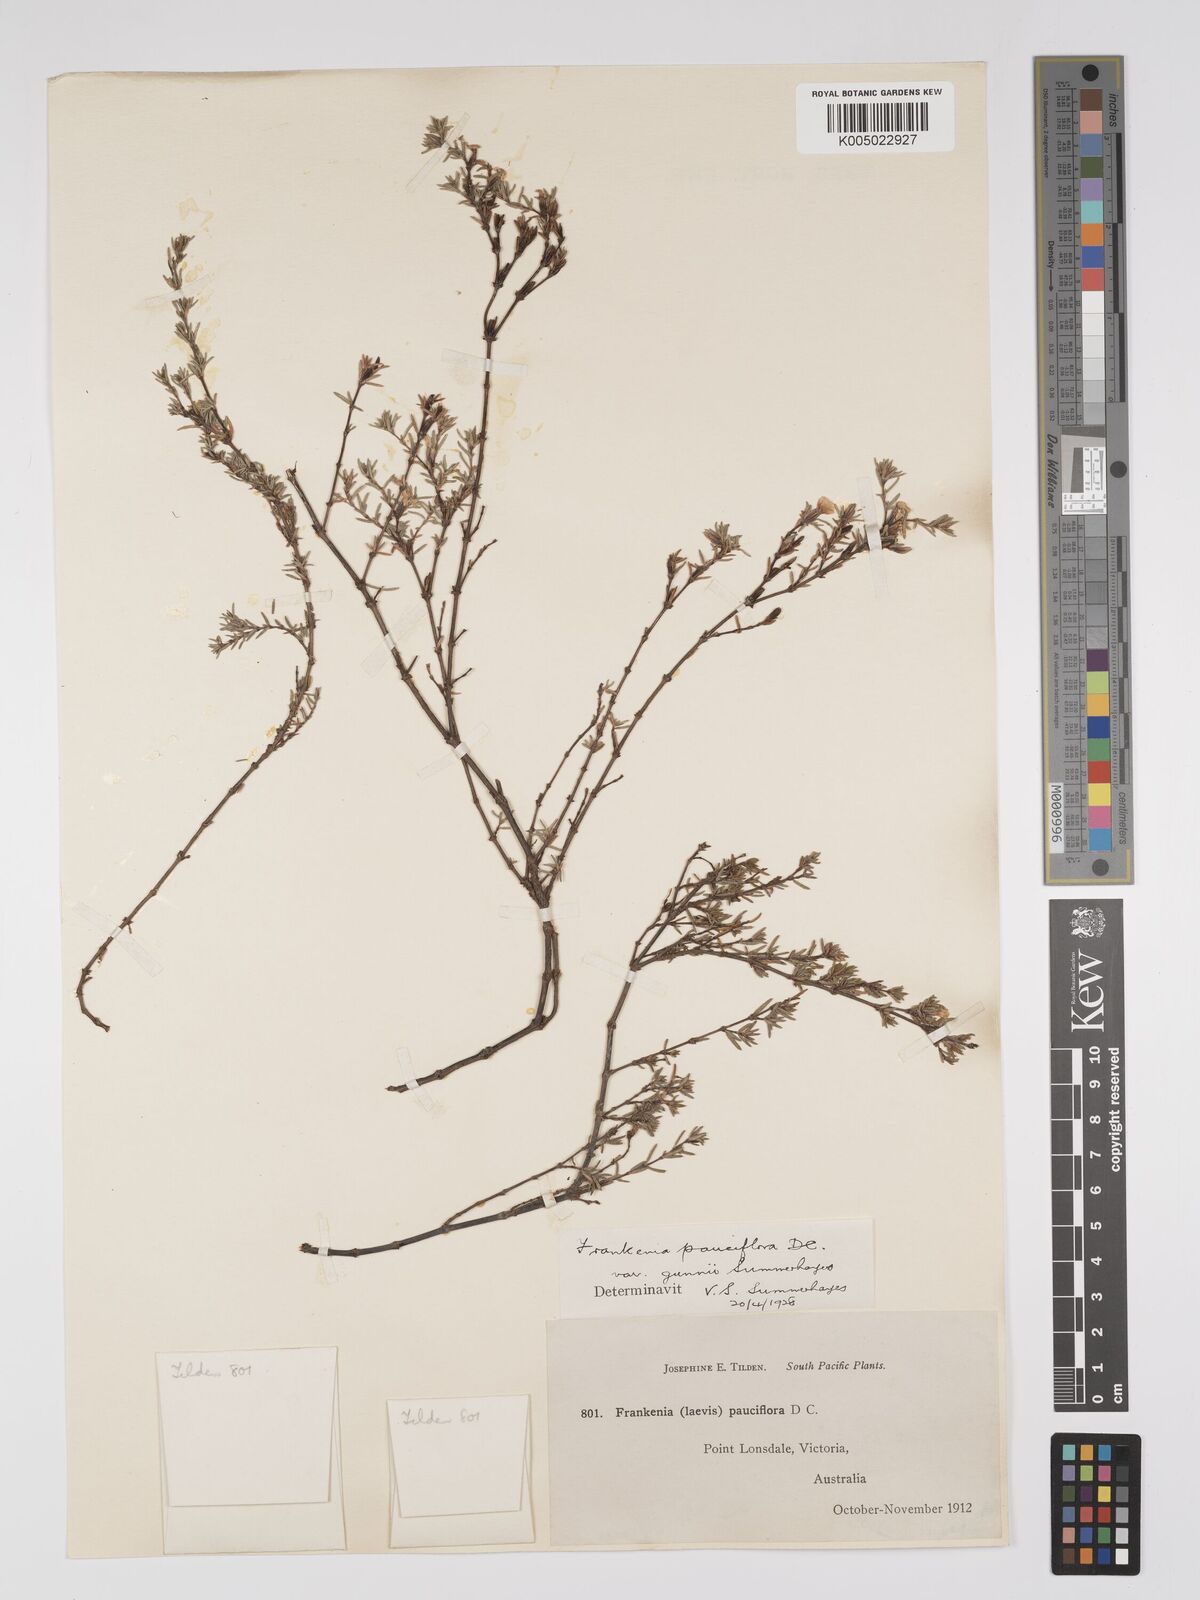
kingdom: Plantae
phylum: Tracheophyta
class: Magnoliopsida
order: Caryophyllales
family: Frankeniaceae
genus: Frankenia
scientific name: Frankenia pauciflora
